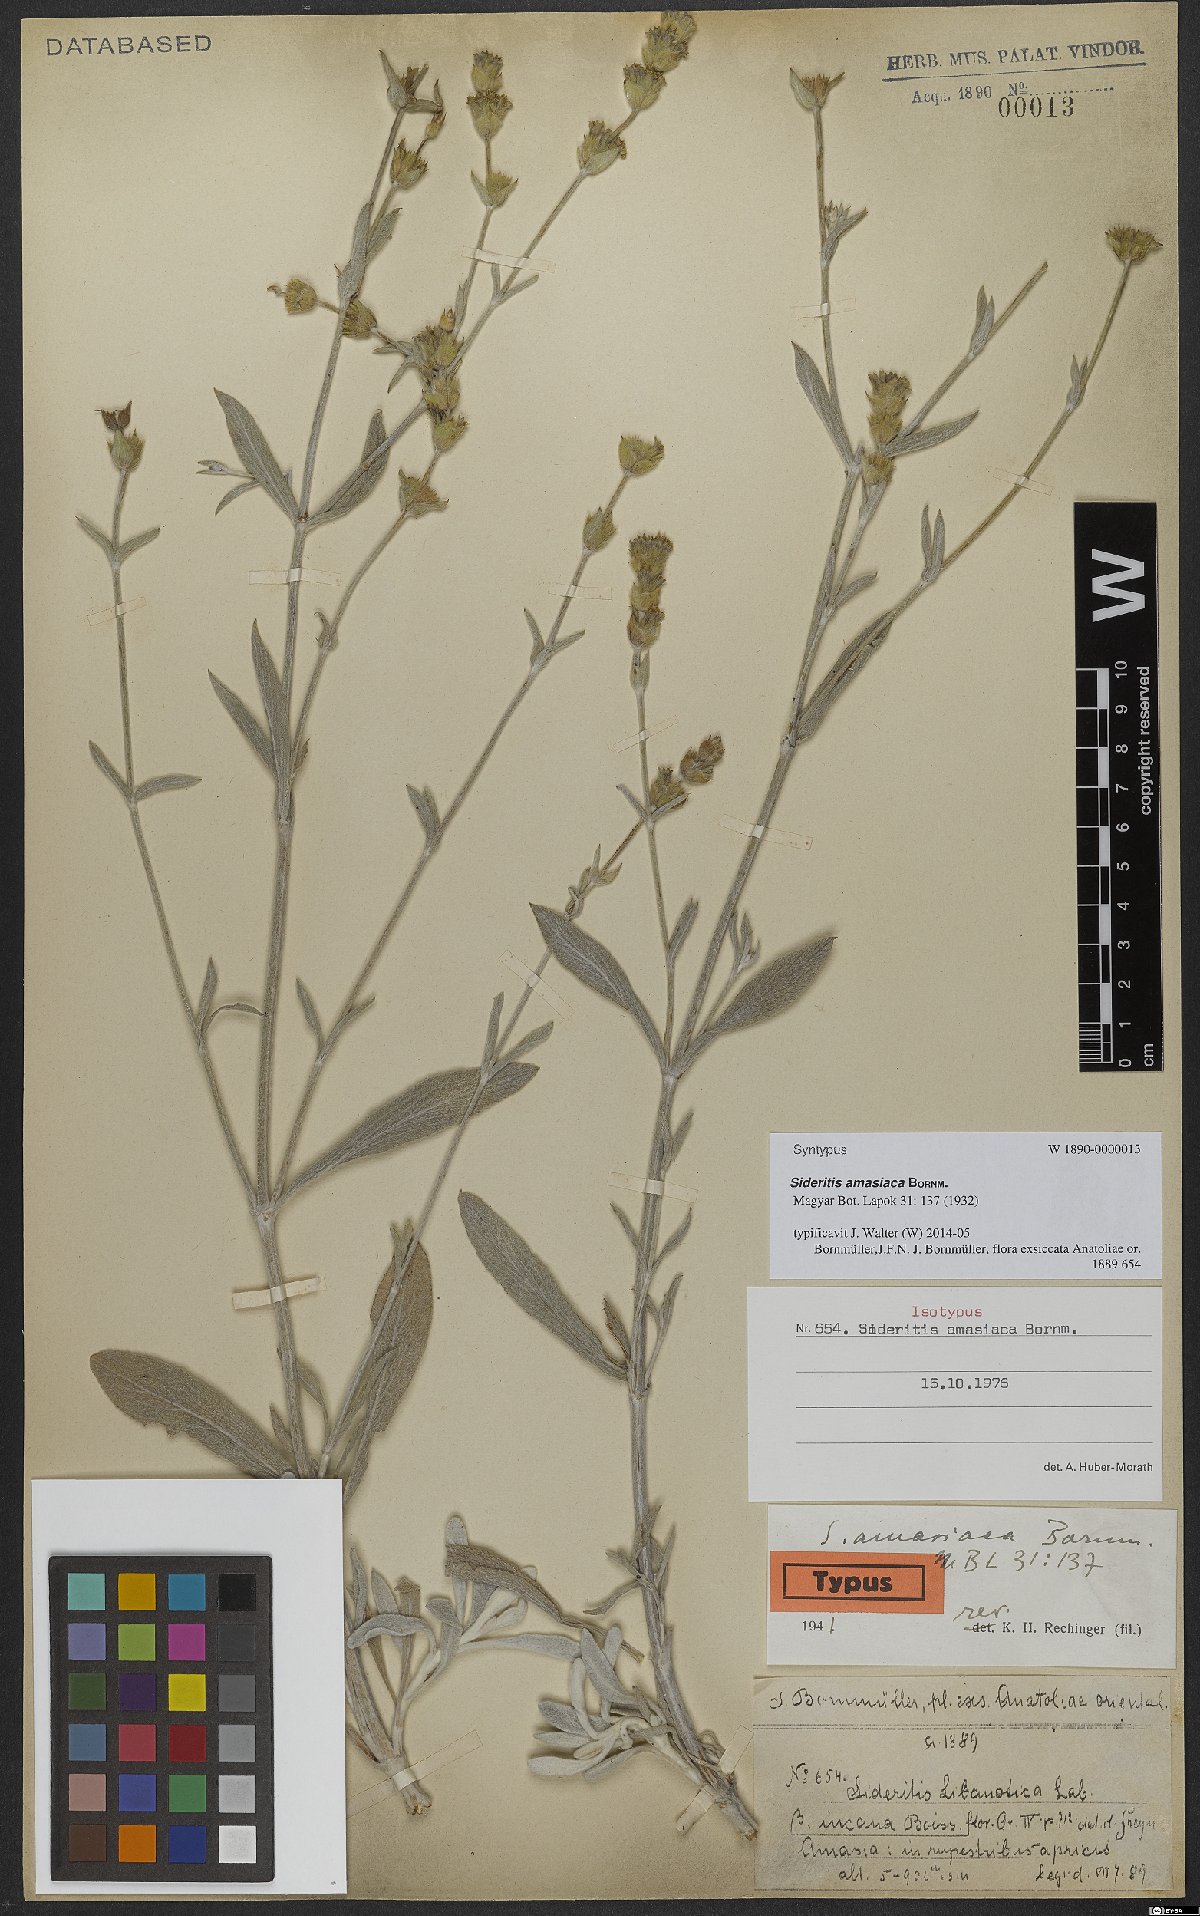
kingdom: Plantae
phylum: Tracheophyta
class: Magnoliopsida
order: Lamiales
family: Lamiaceae
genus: Sideritis
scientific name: Sideritis amasiaca
